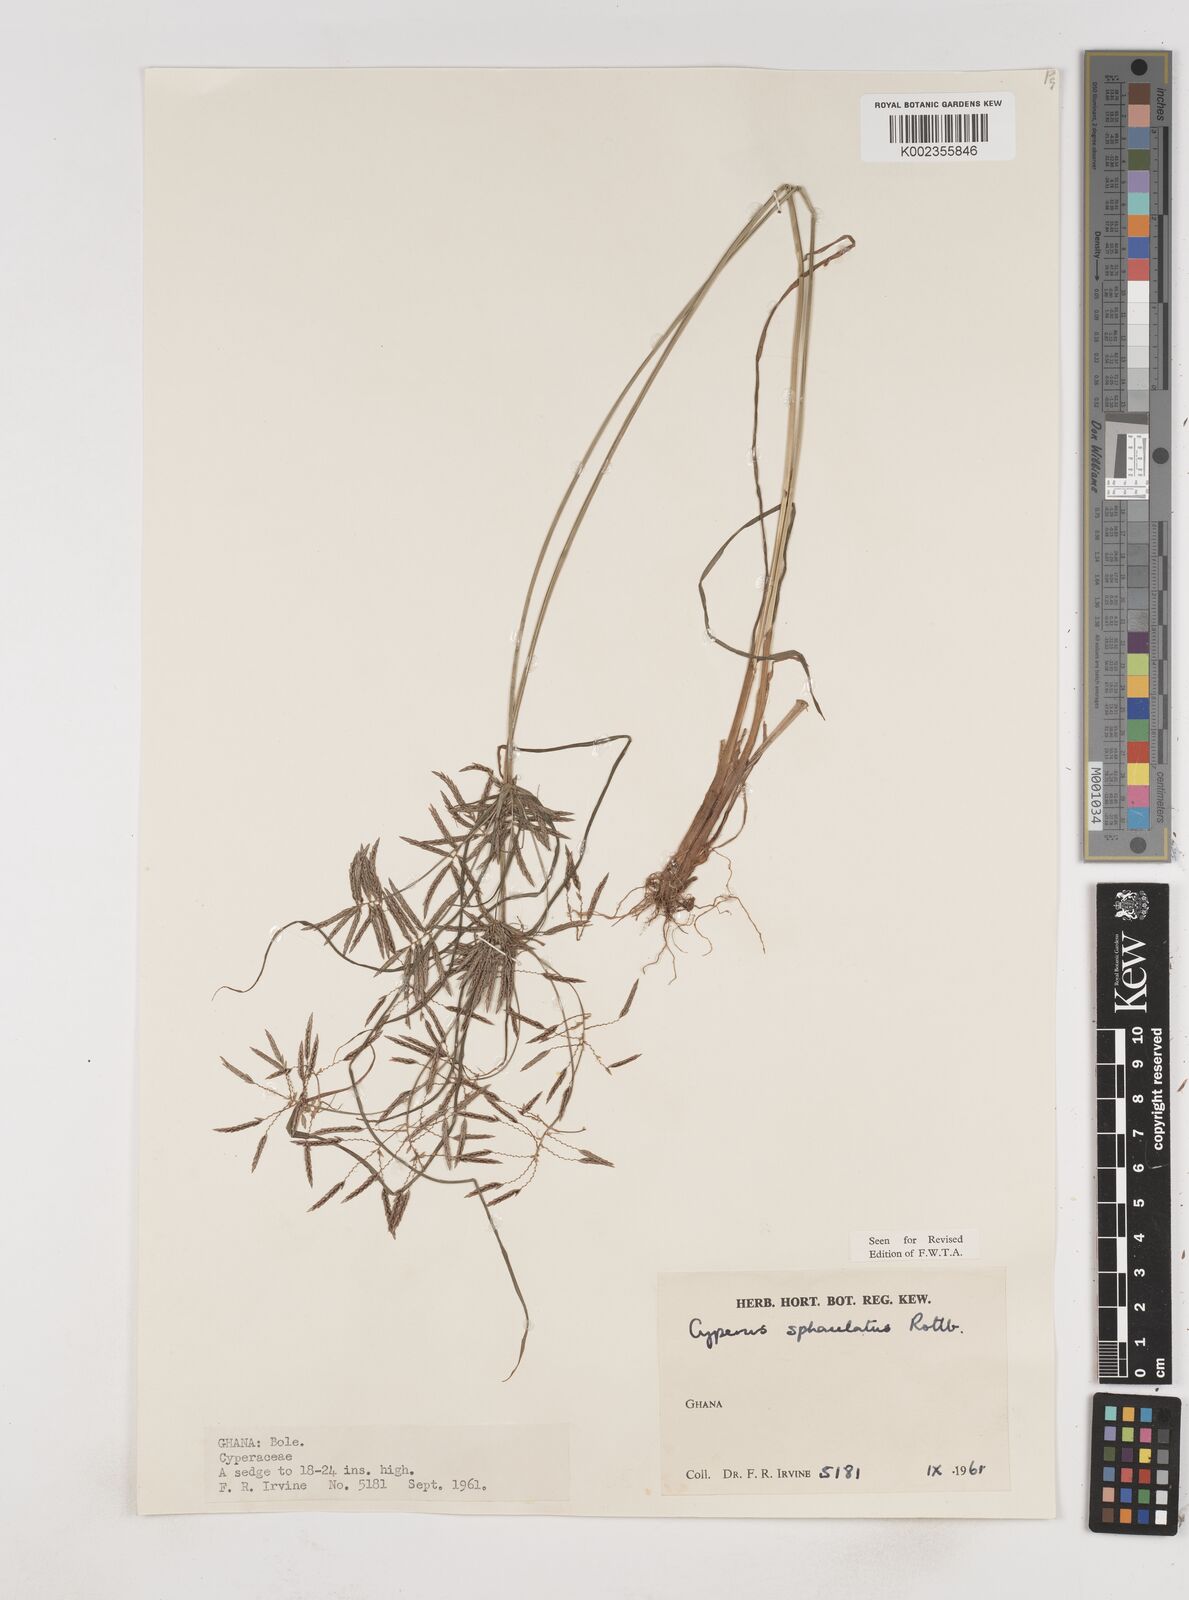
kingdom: Plantae
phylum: Tracheophyta
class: Liliopsida
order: Poales
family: Cyperaceae
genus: Cyperus
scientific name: Cyperus sphacelatus
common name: Roadside flatsedge
